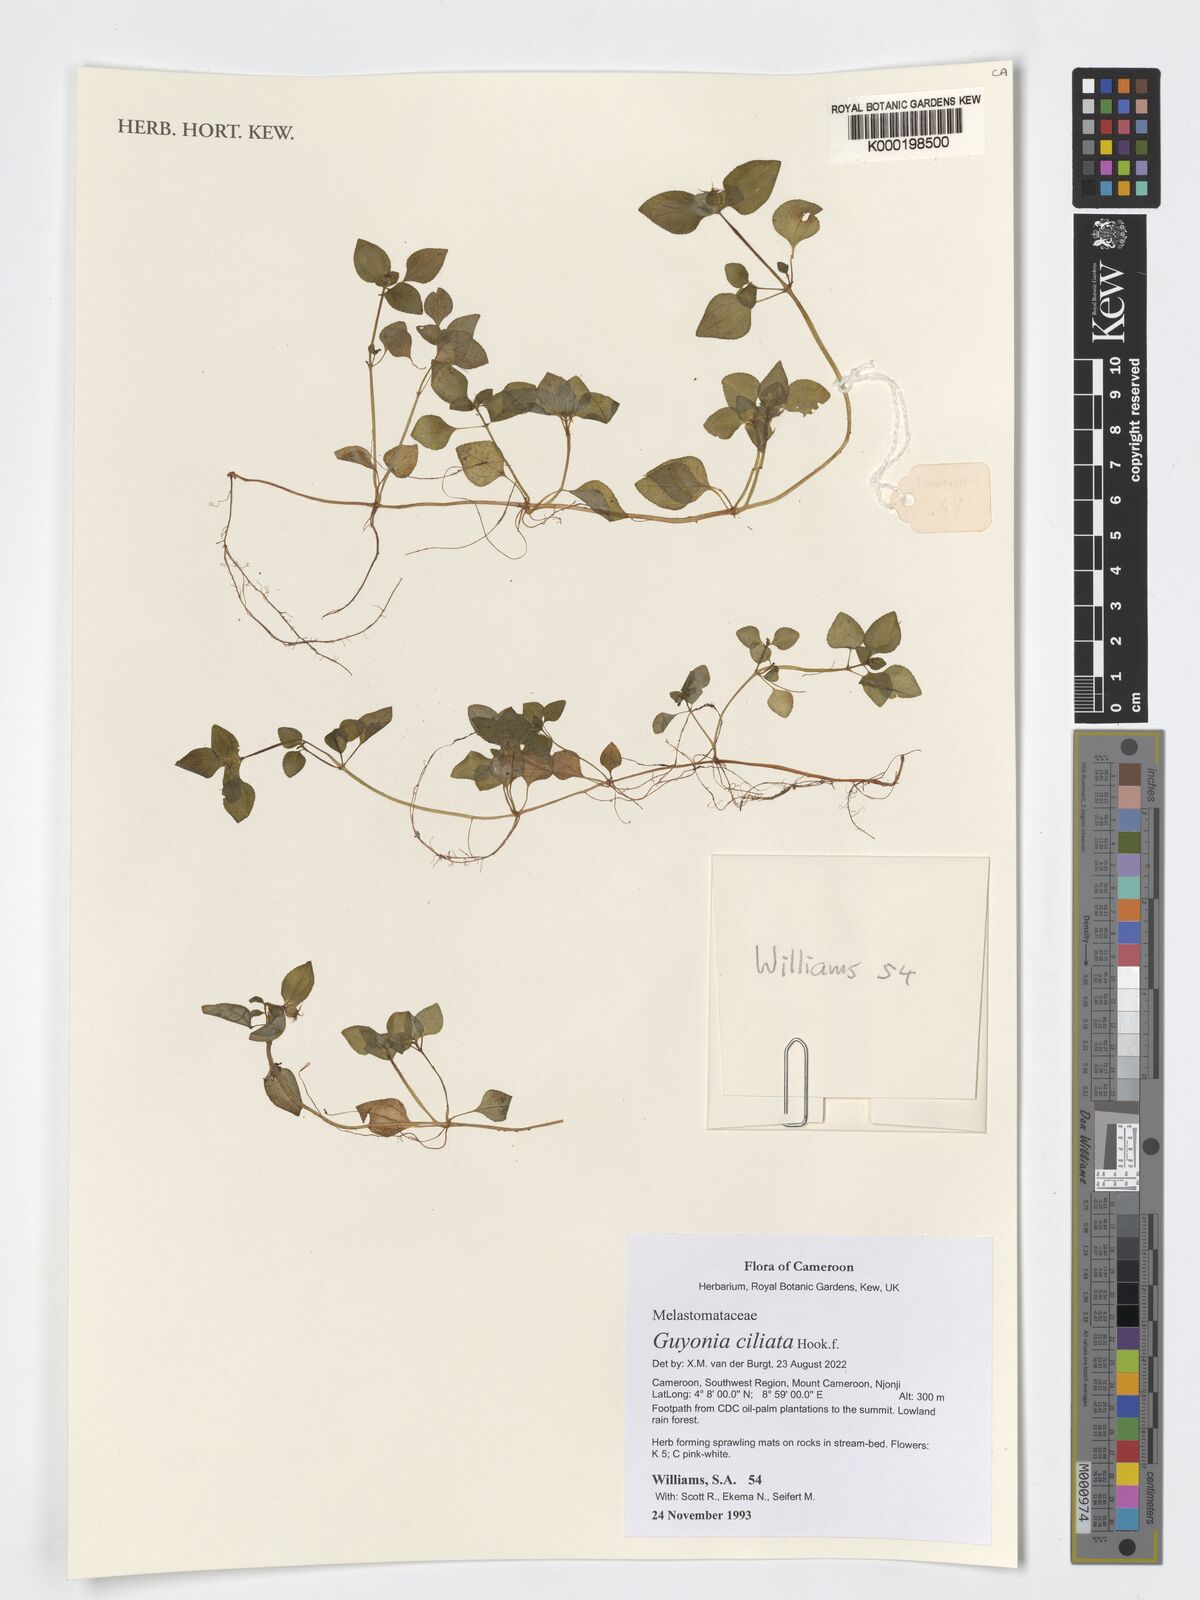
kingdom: Plantae
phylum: Tracheophyta
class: Magnoliopsida
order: Myrtales
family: Melastomataceae
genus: Guyonia
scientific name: Guyonia ciliata
